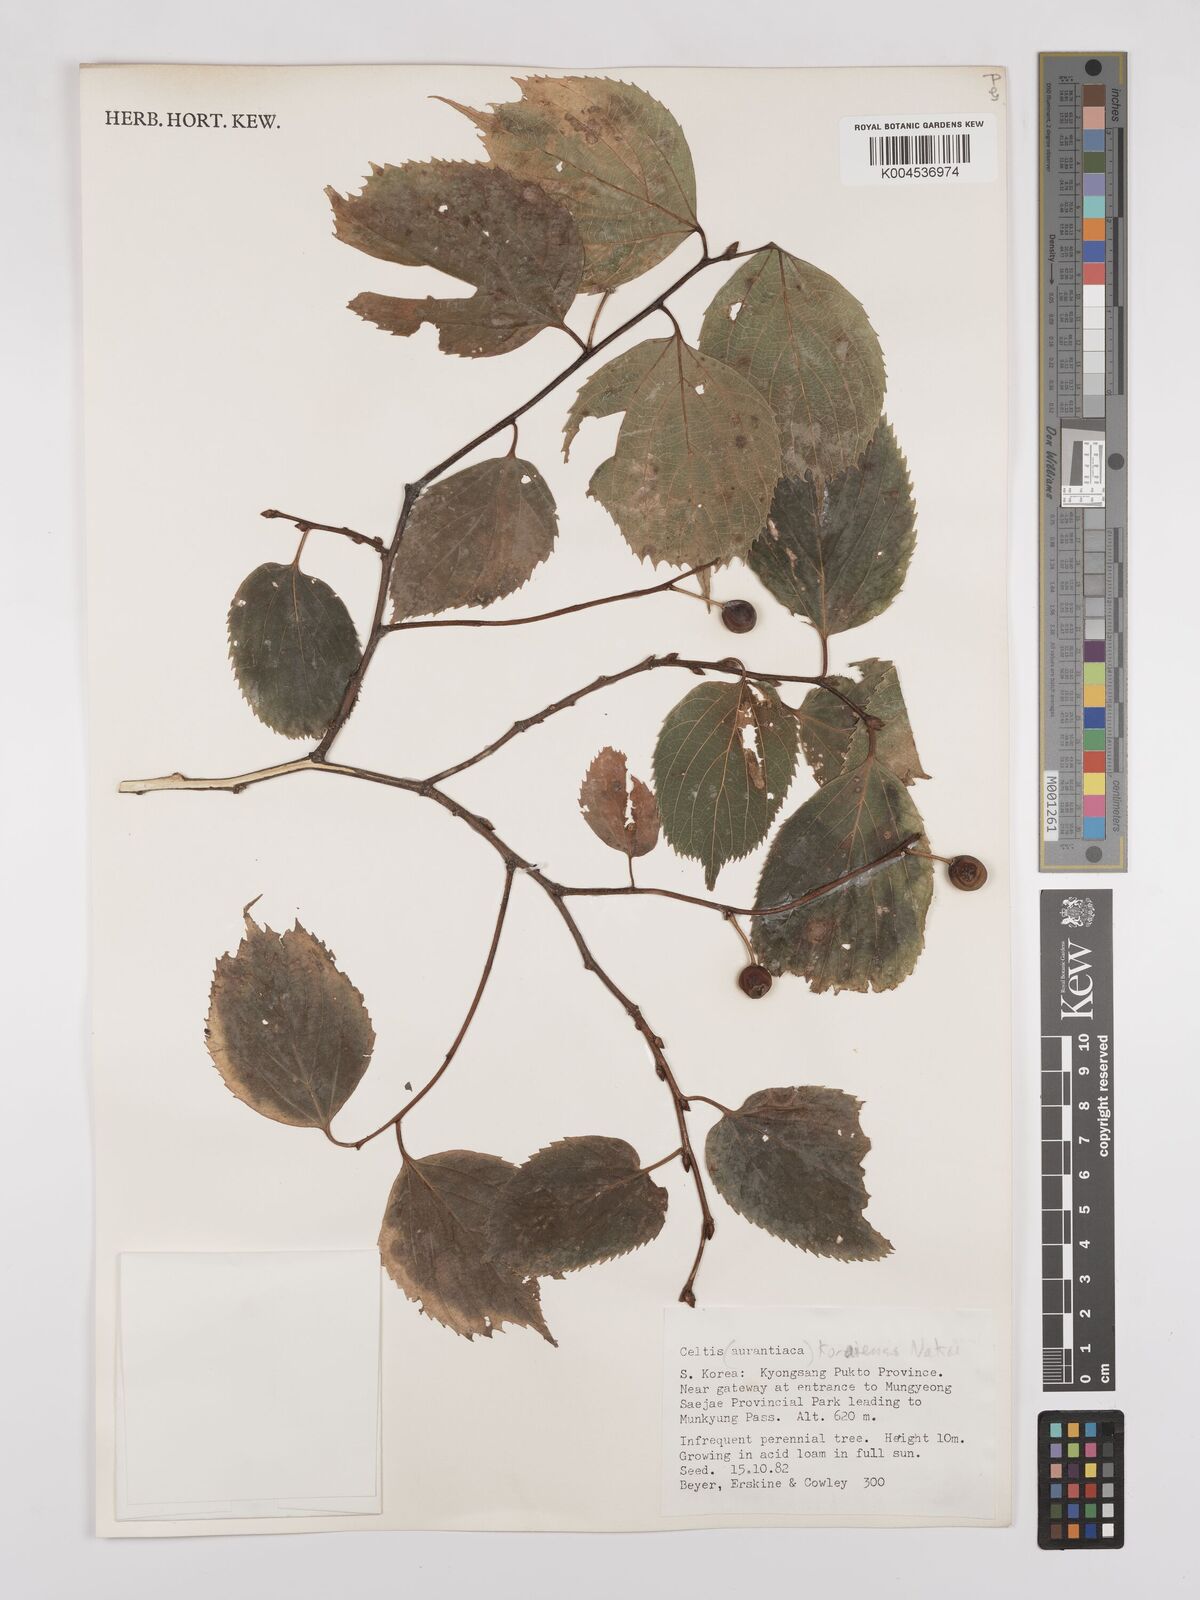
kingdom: Plantae
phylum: Tracheophyta
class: Magnoliopsida
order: Rosales
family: Cannabaceae
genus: Celtis
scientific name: Celtis koraiensis
